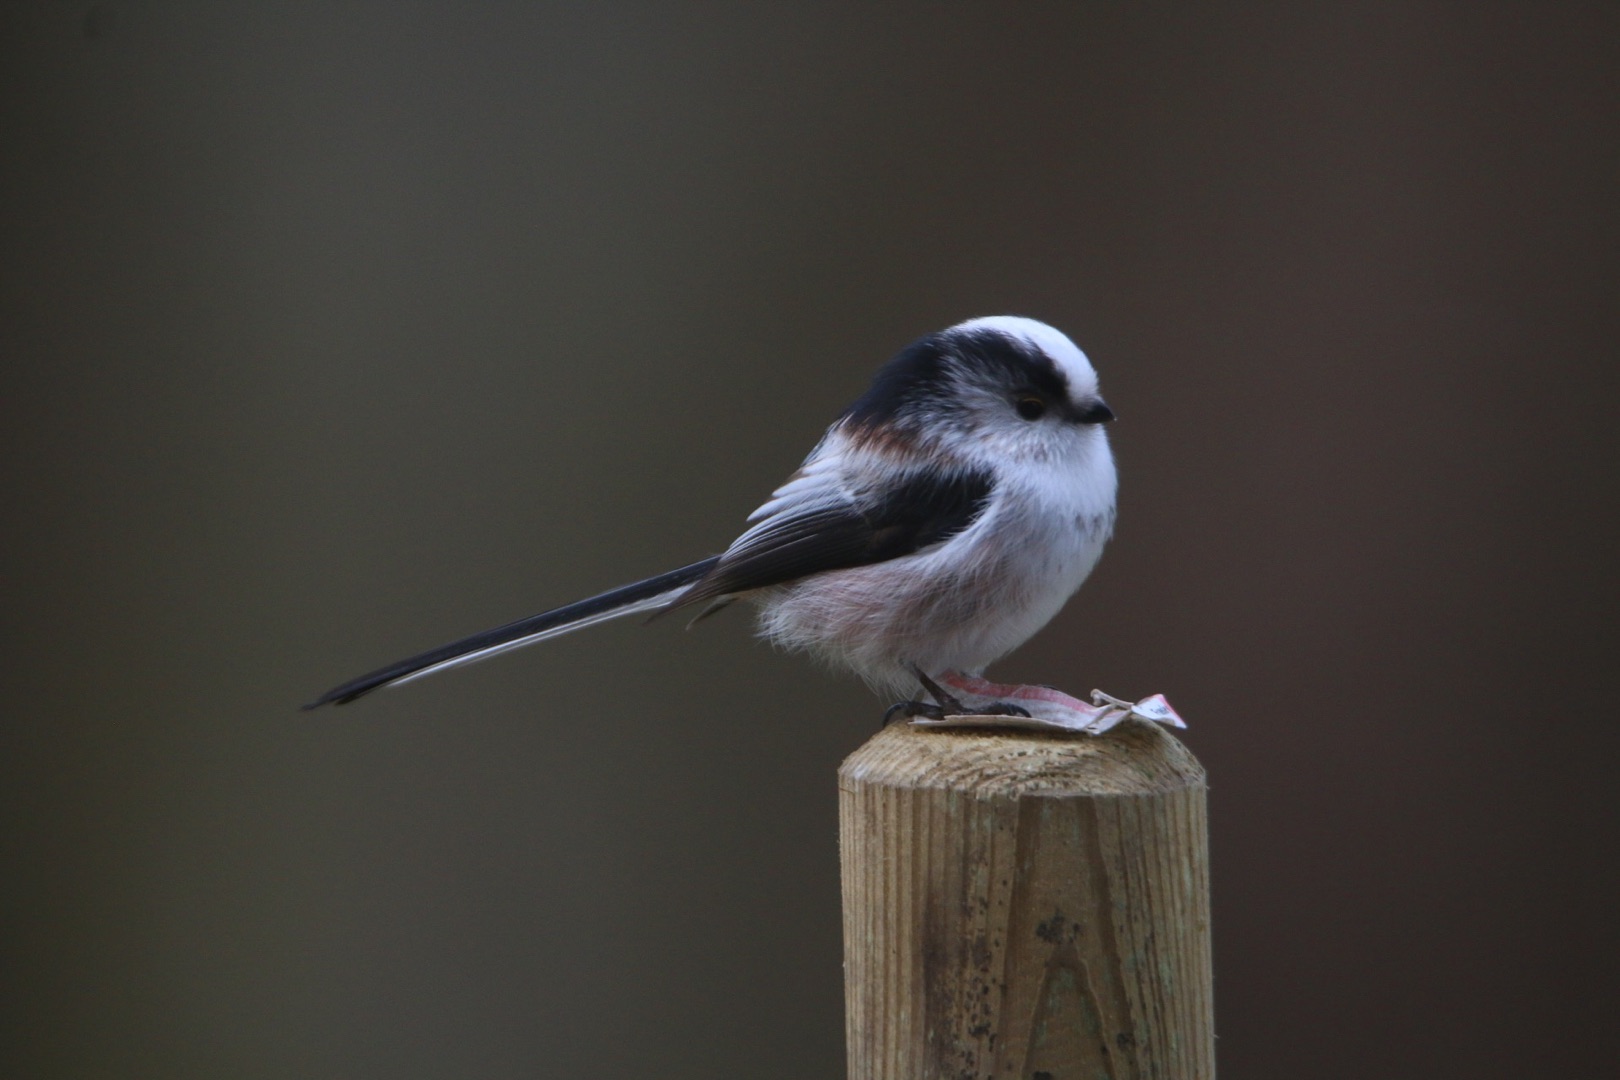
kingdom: Animalia
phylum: Chordata
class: Aves
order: Passeriformes
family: Aegithalidae
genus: Aegithalos
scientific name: Aegithalos caudatus
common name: Halemejse
